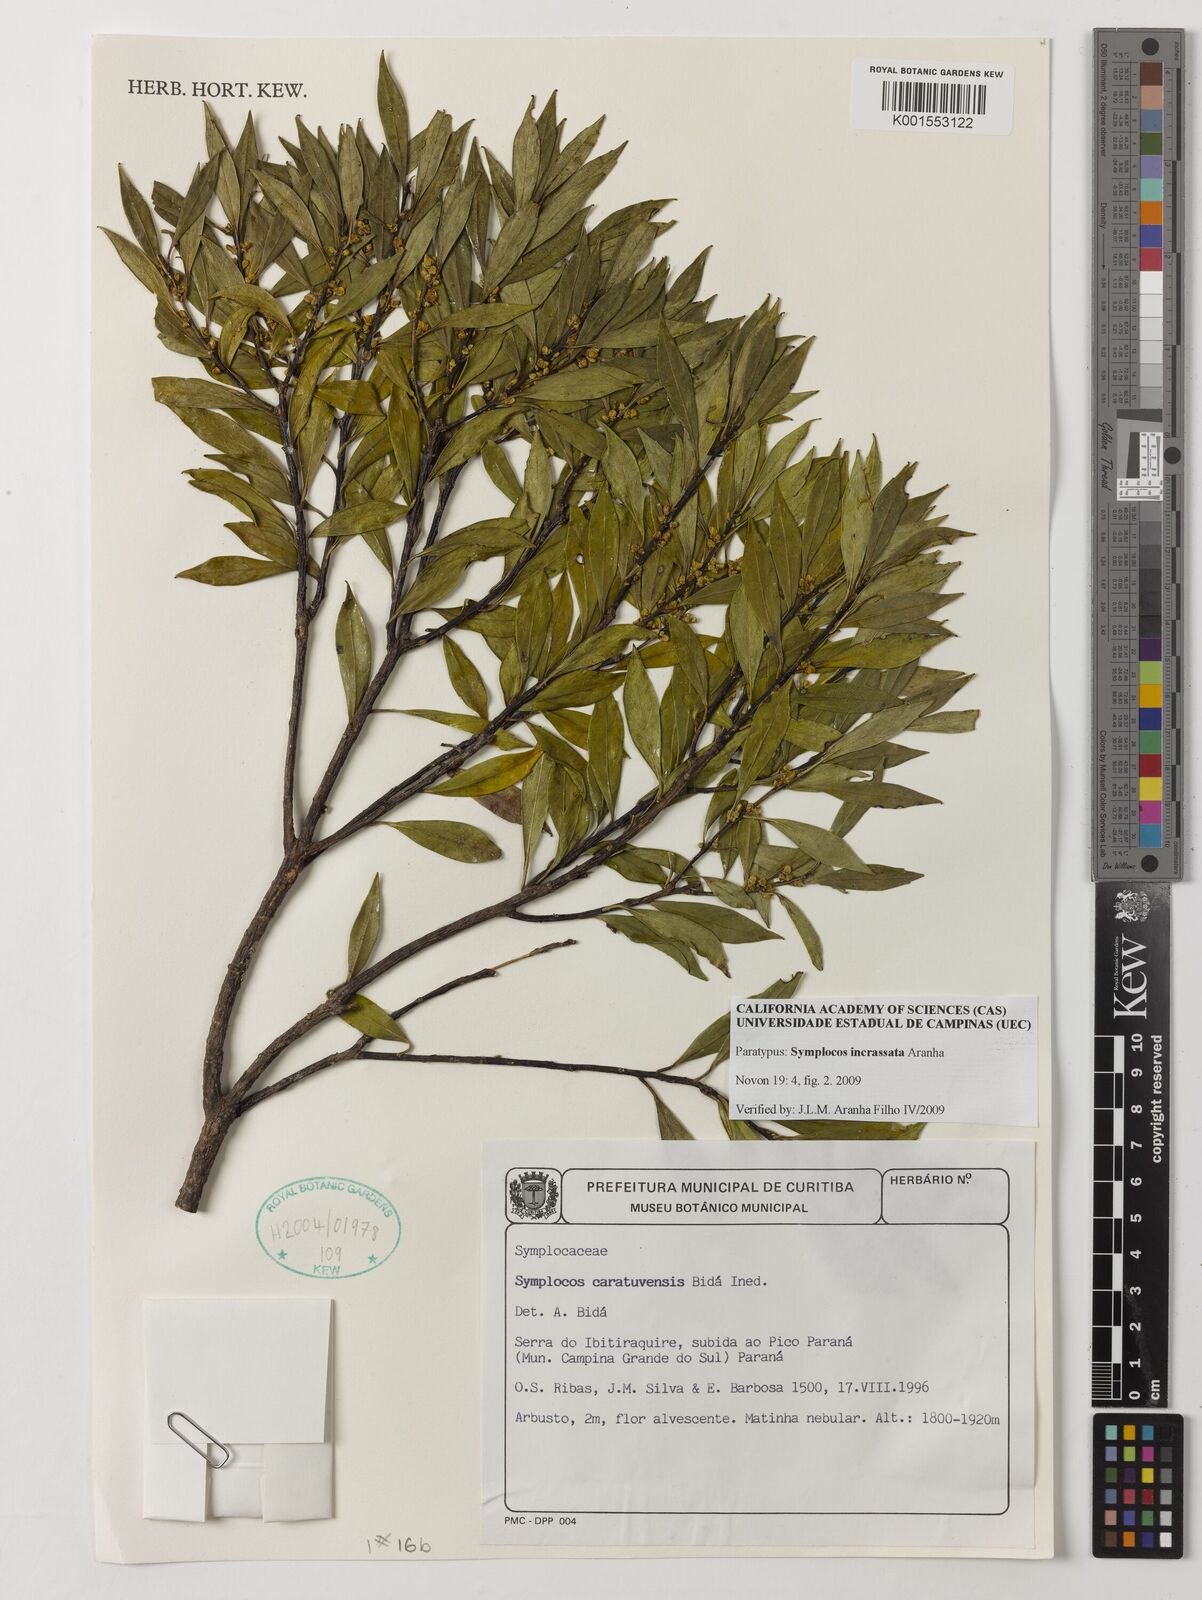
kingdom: Plantae
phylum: Tracheophyta
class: Magnoliopsida
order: Ericales
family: Symplocaceae
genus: Symplocos
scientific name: Symplocos incrassata
